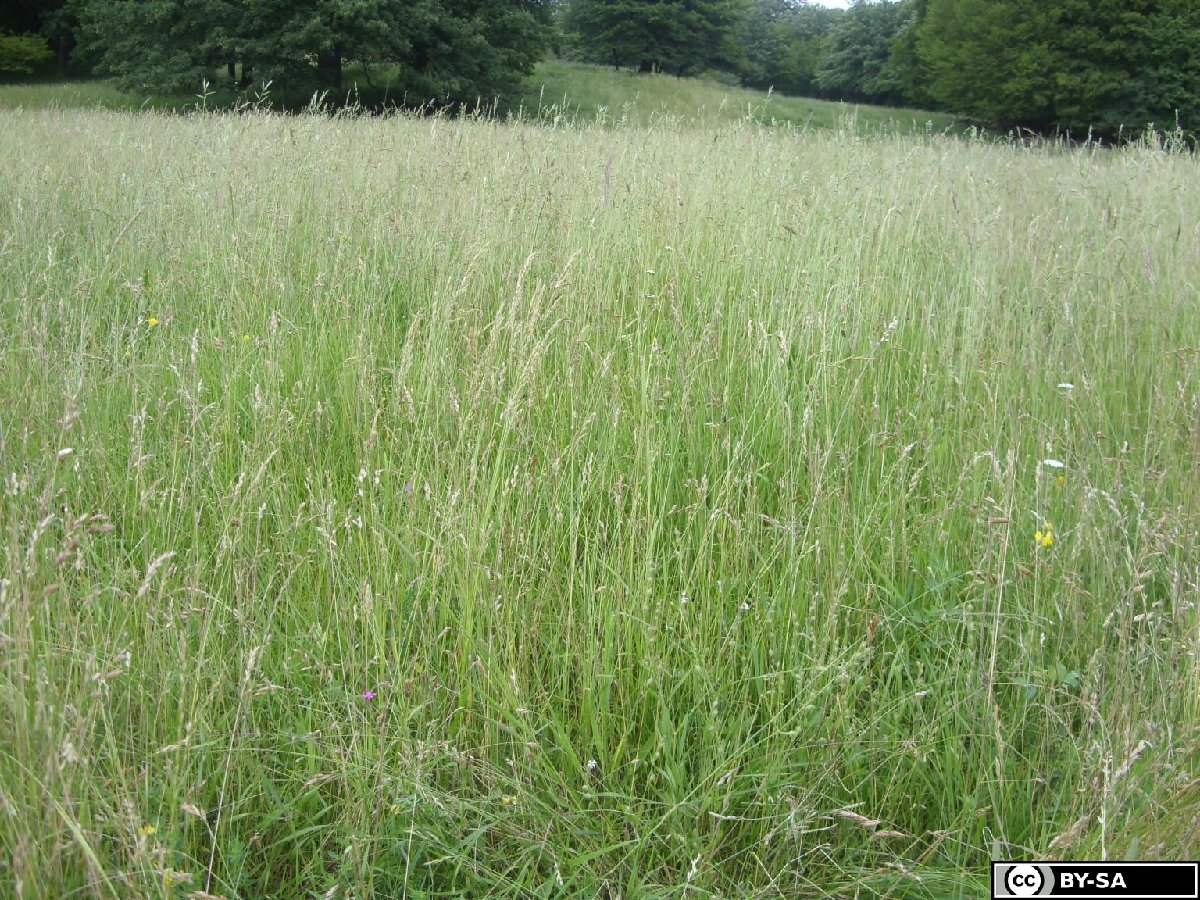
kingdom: Plantae
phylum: Tracheophyta
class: Magnoliopsida
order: Caryophyllales
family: Caryophyllaceae
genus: Silene
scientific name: Silene gallica
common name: Small-flowered catchfly
